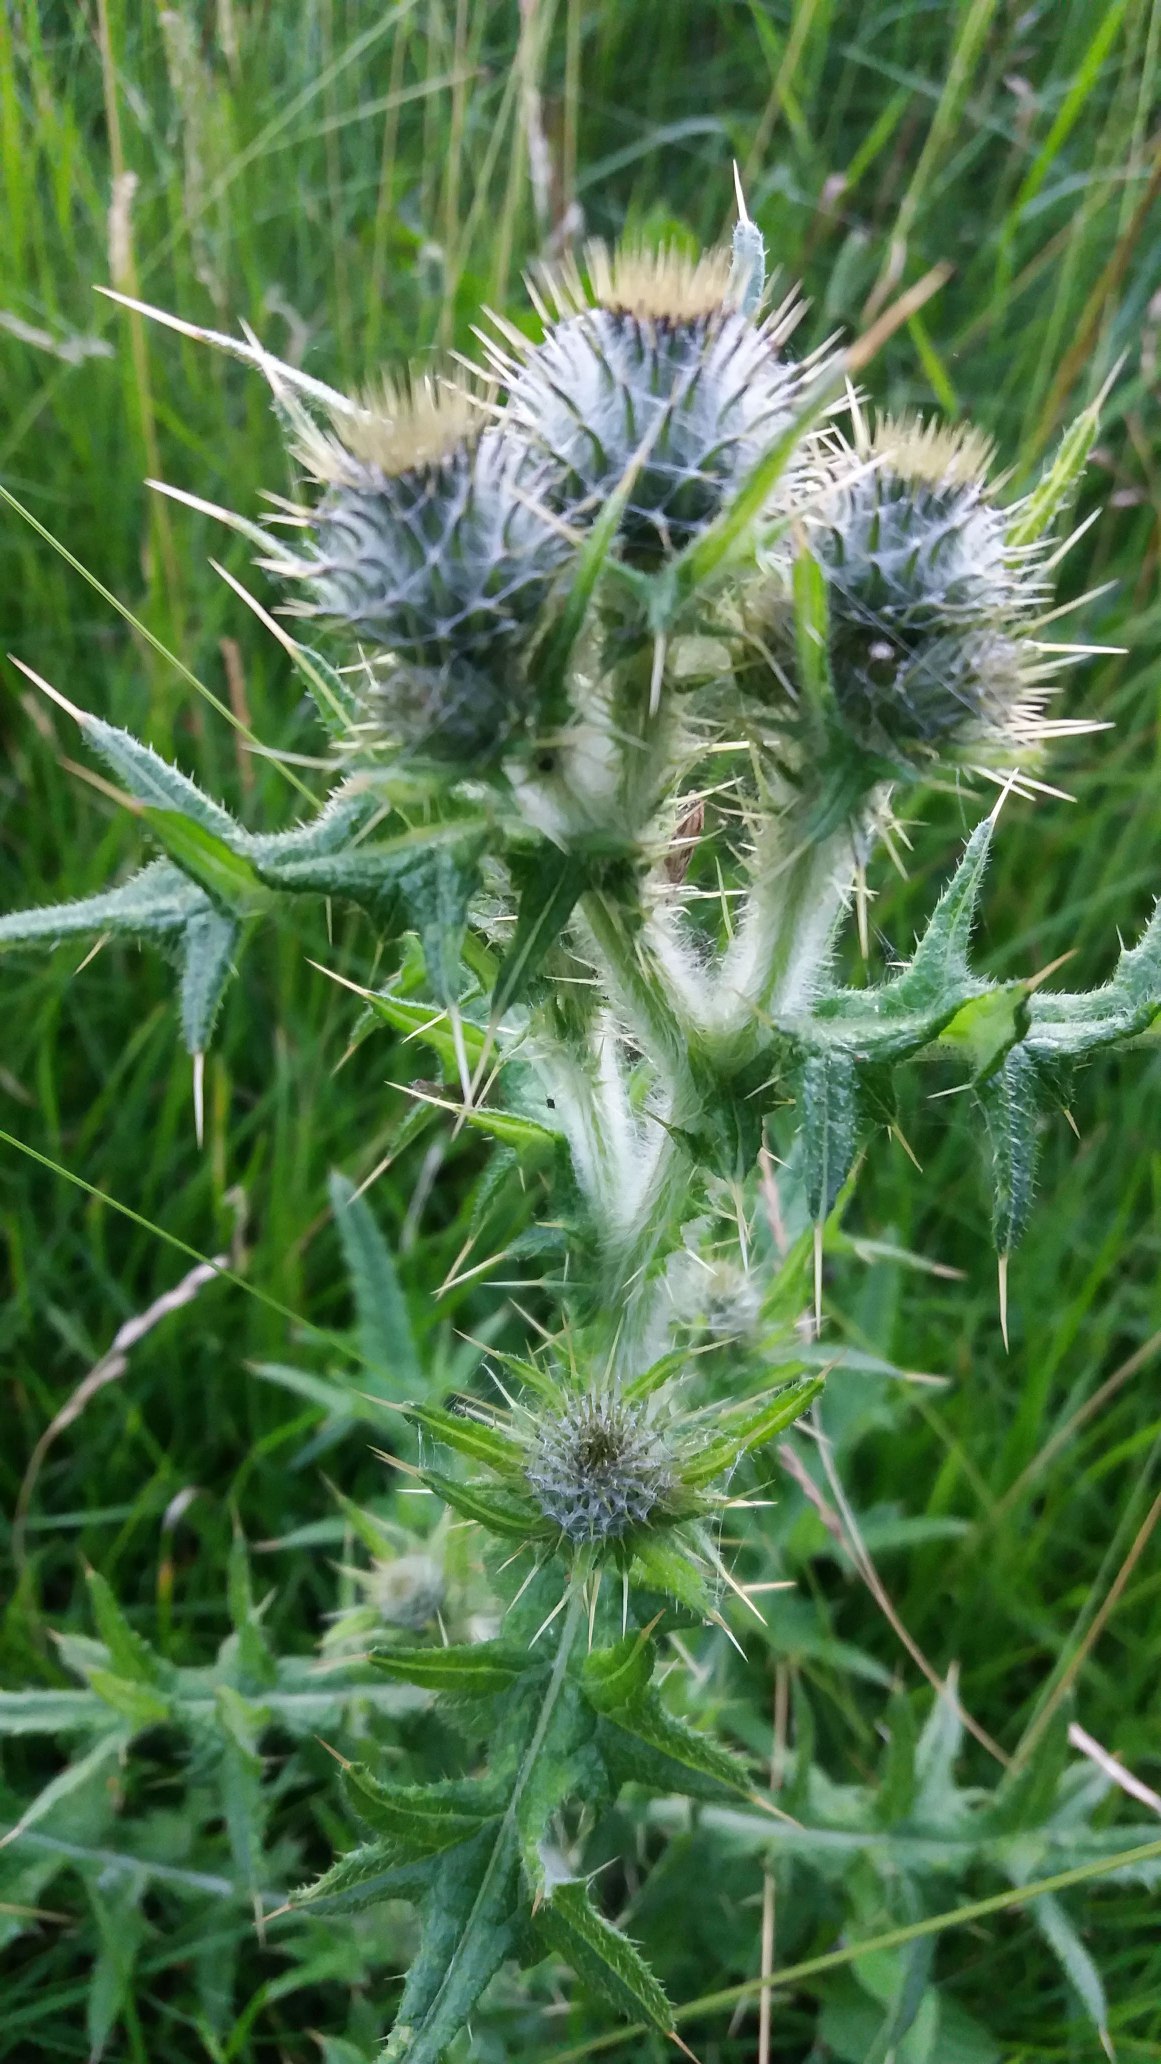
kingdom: Plantae
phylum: Tracheophyta
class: Magnoliopsida
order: Asterales
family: Asteraceae
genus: Cirsium
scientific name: Cirsium vulgare
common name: Horse-tidsel
